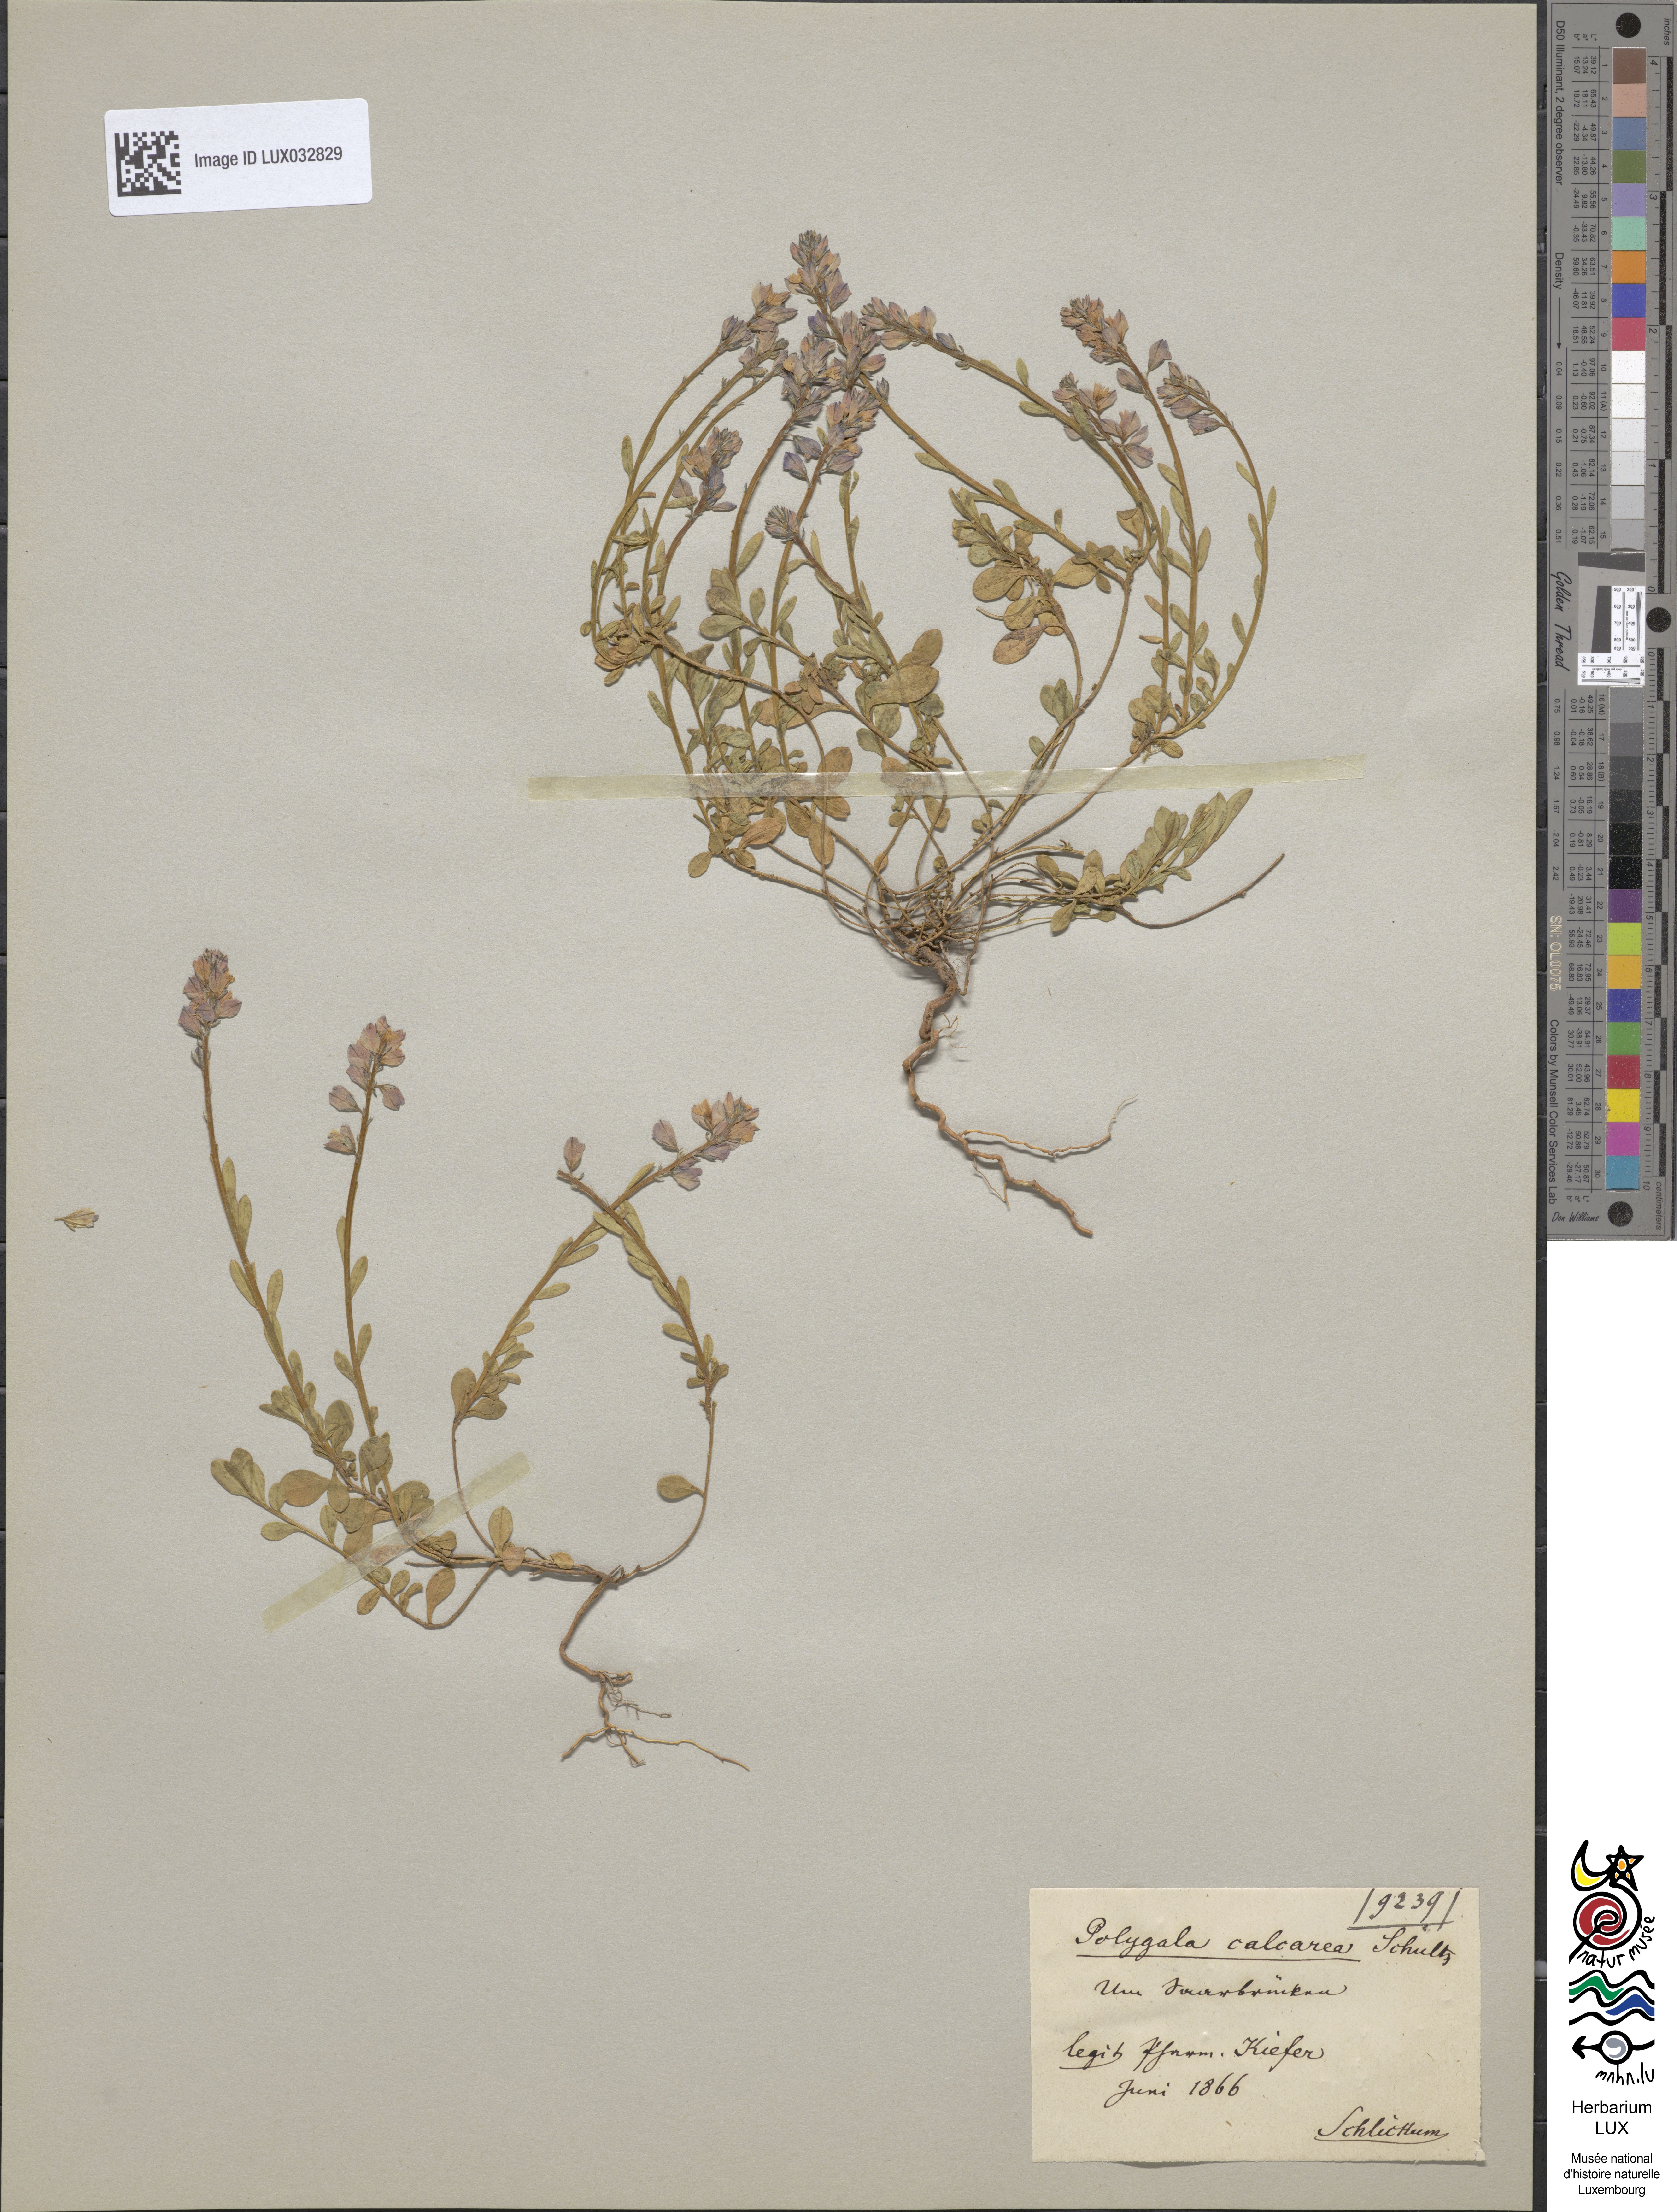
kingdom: Plantae
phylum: Tracheophyta
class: Magnoliopsida
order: Fabales
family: Polygalaceae
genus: Polygala
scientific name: Polygala calcarea
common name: Chalk milkwort
